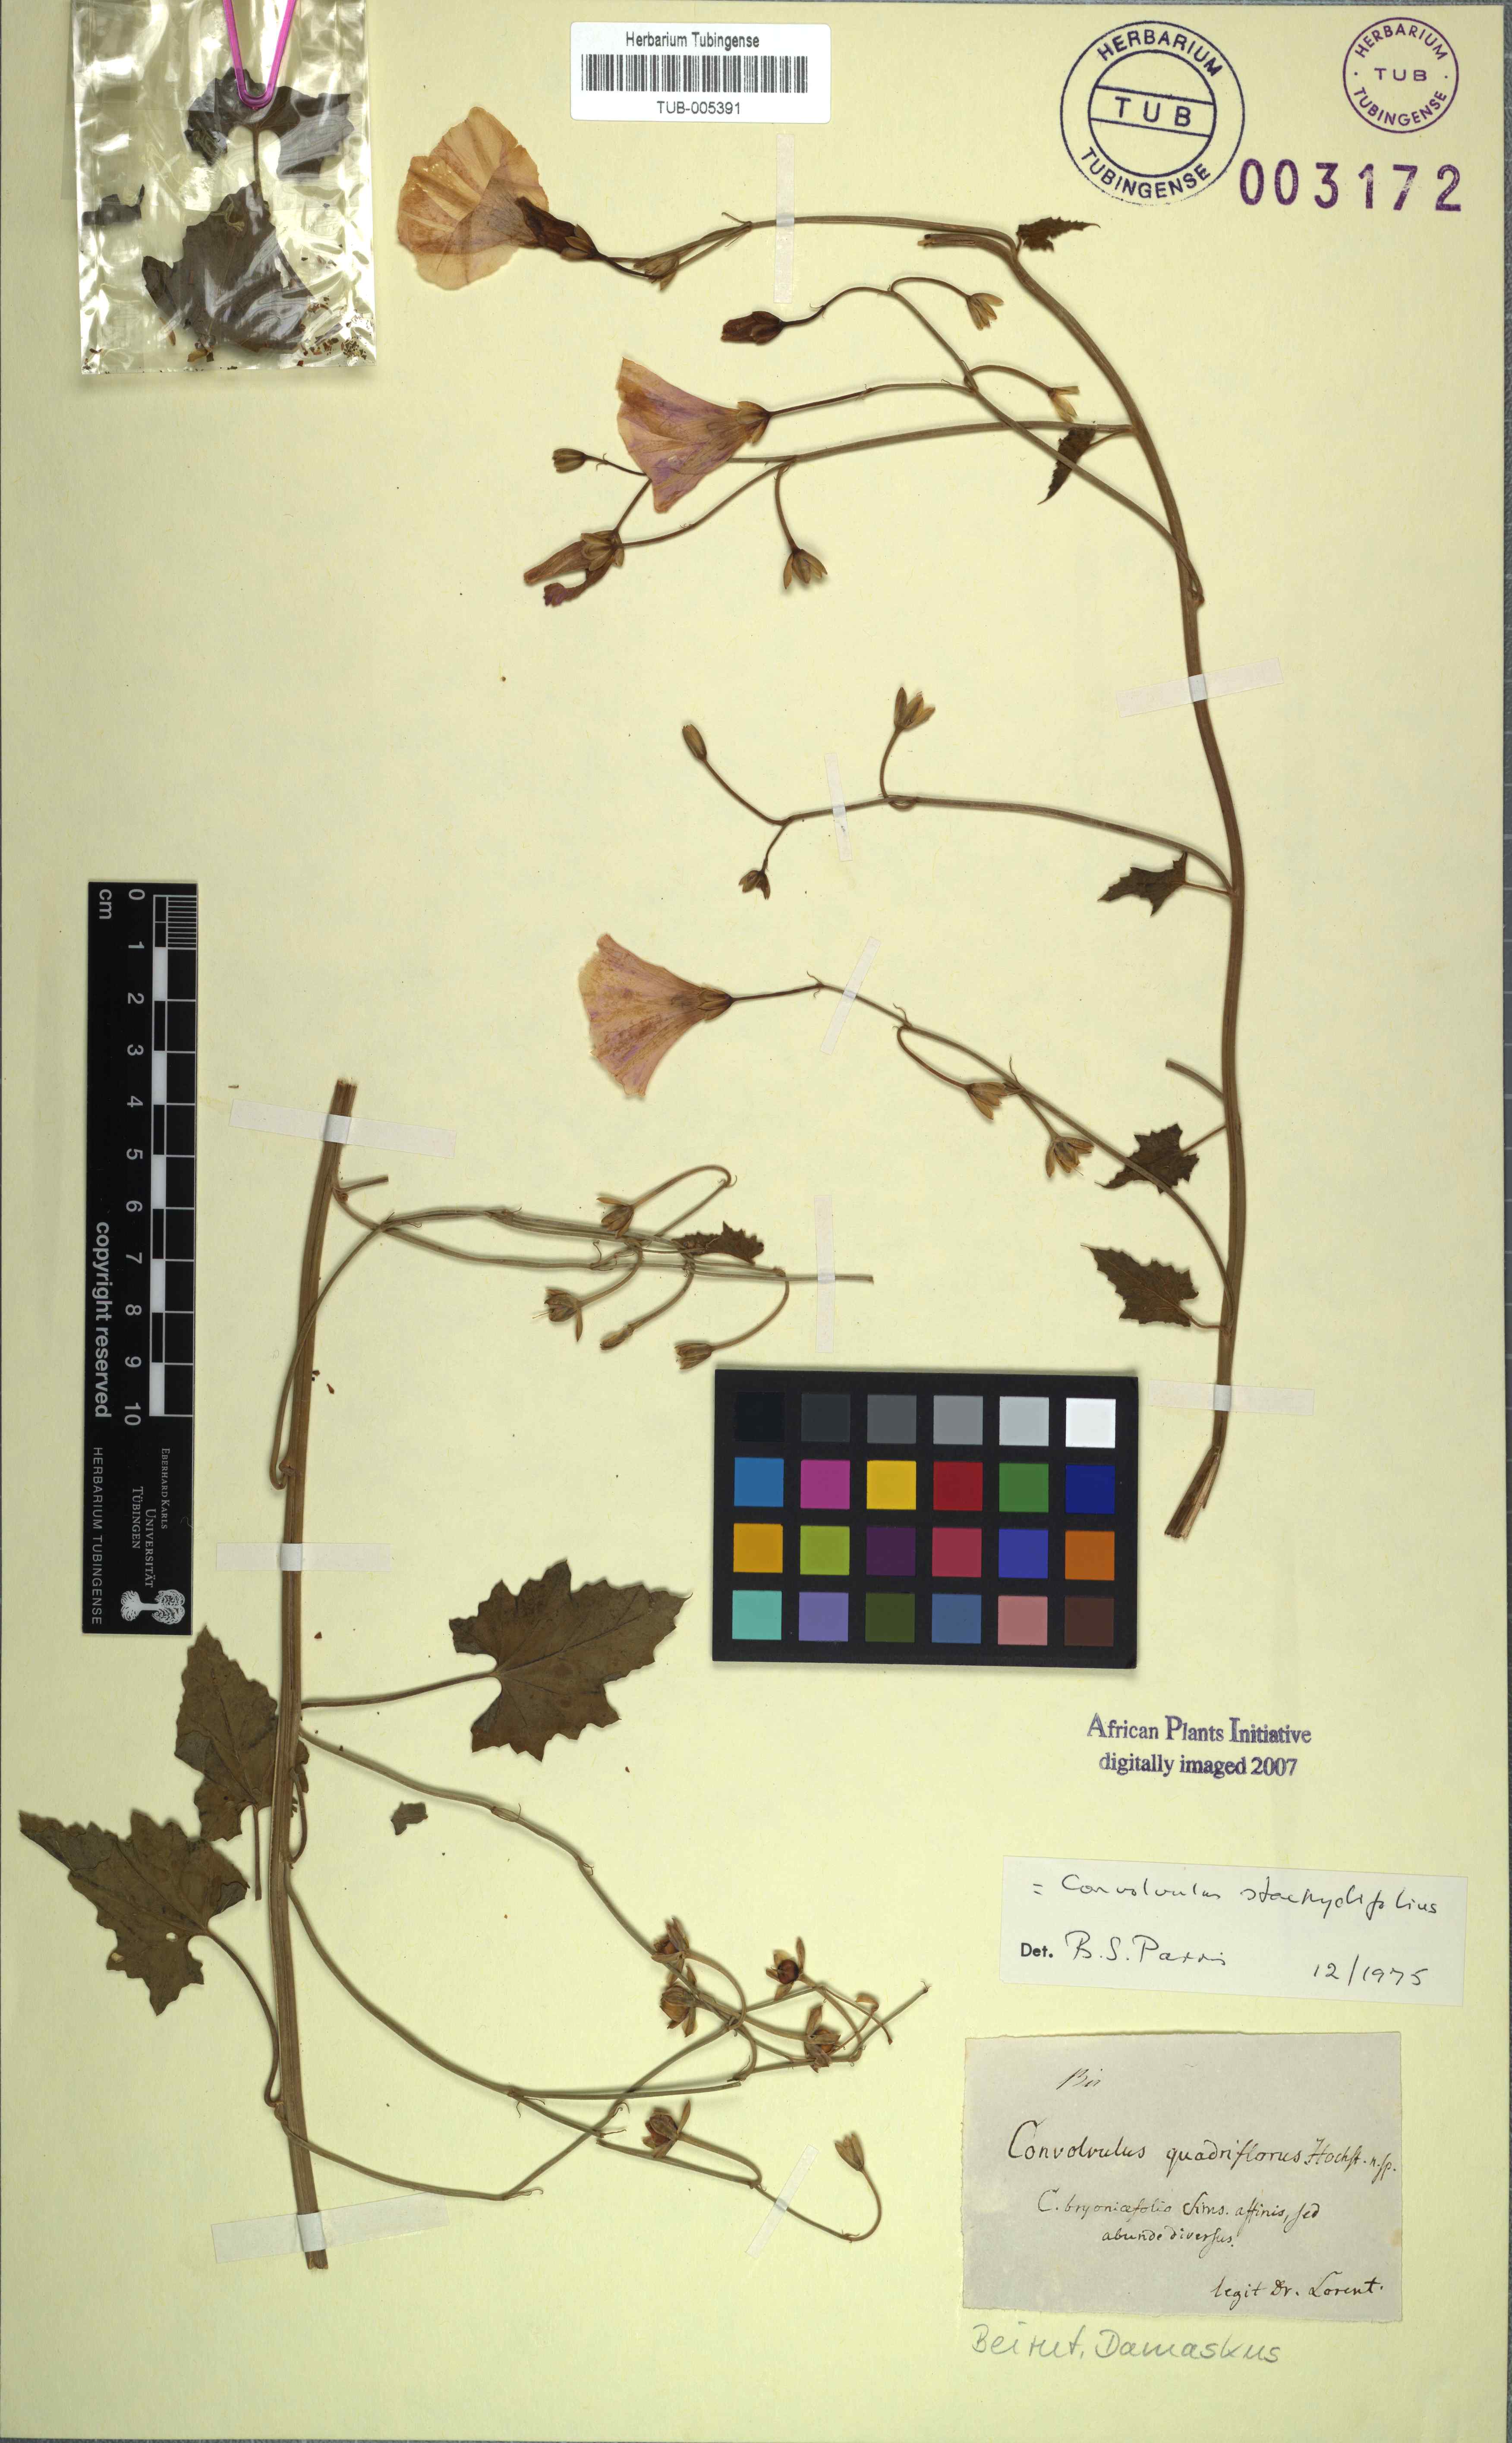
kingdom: Plantae
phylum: Tracheophyta
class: Magnoliopsida
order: Solanales
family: Convolvulaceae
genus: Convolvulus
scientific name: Convolvulus stachydifolius
